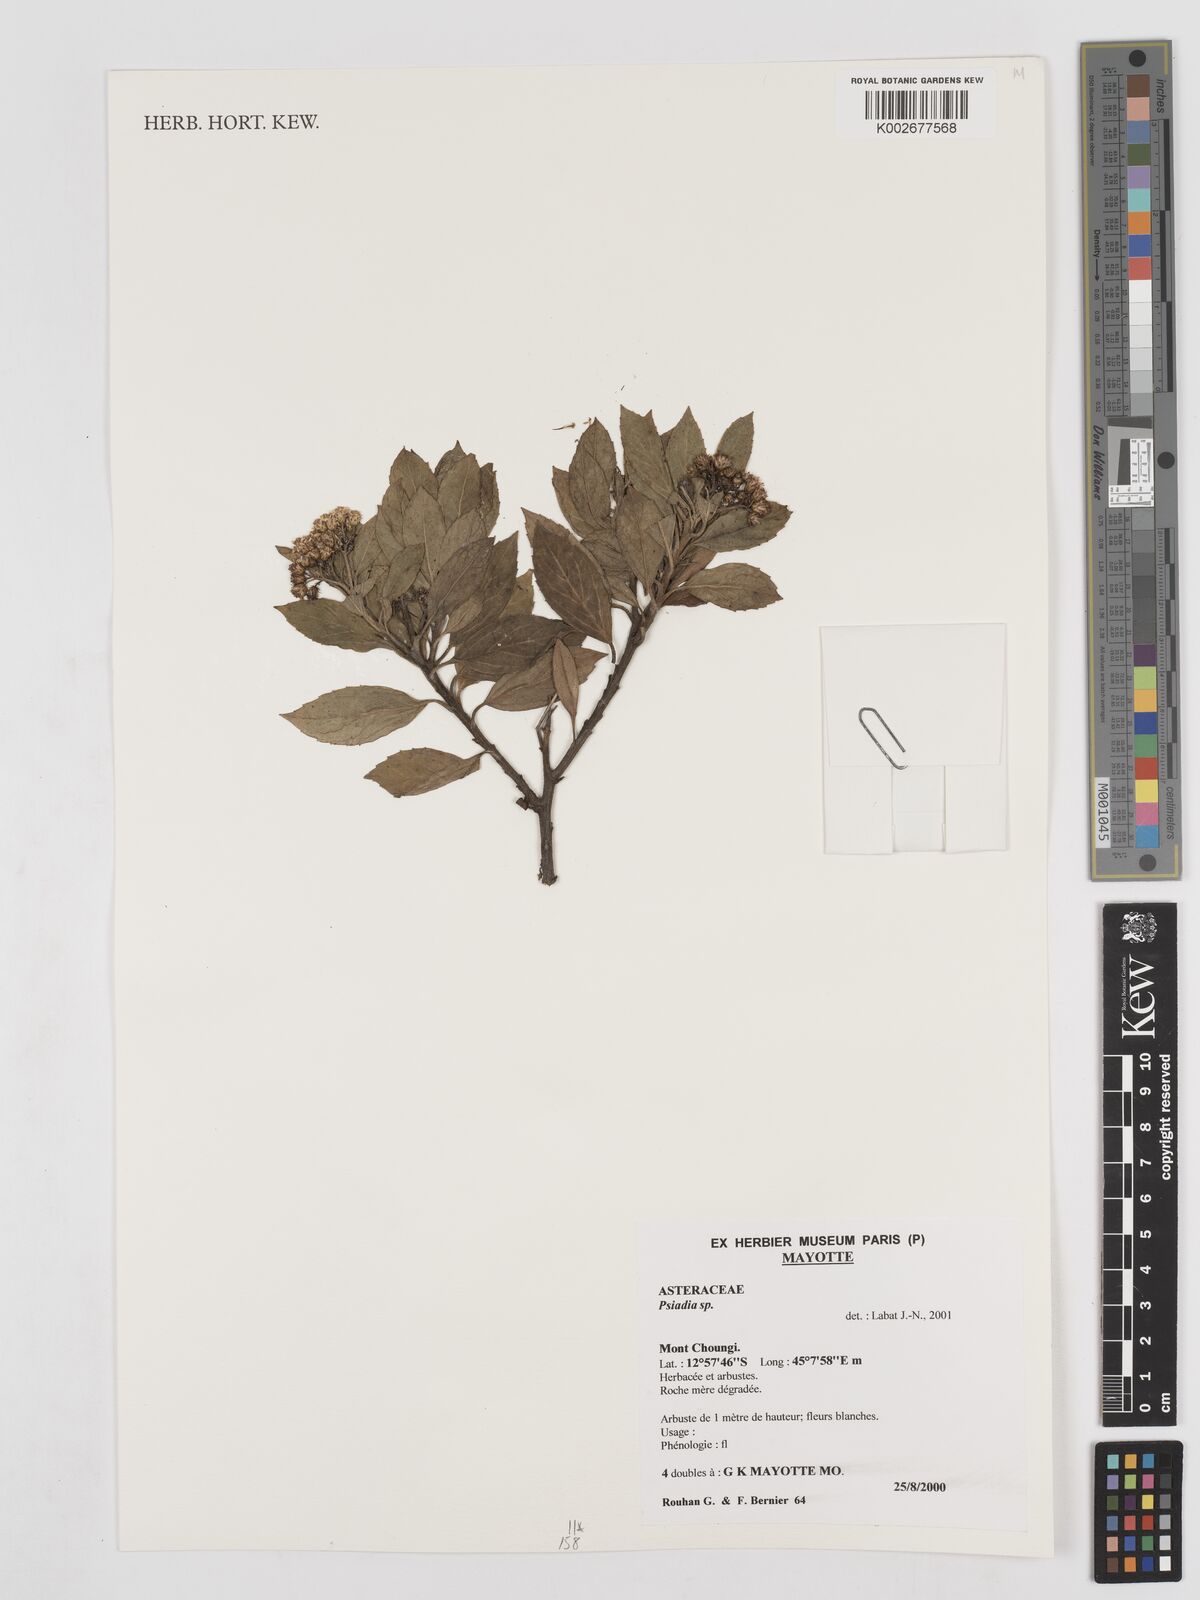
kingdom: Plantae
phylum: Tracheophyta
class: Magnoliopsida
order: Asterales
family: Asteraceae
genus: Psiadia
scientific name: Psiadia
